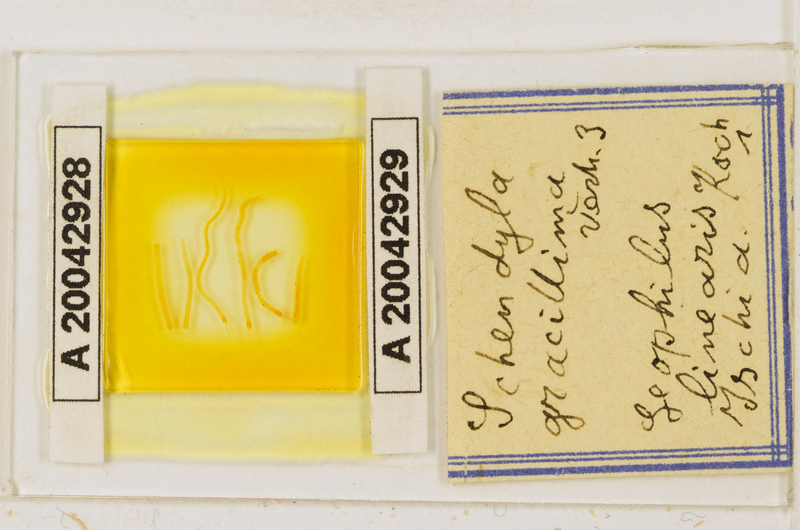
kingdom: Animalia
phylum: Arthropoda
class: Chilopoda
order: Geophilomorpha
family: Schendylidae
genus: Schendyla
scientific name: Schendyla gracillima
